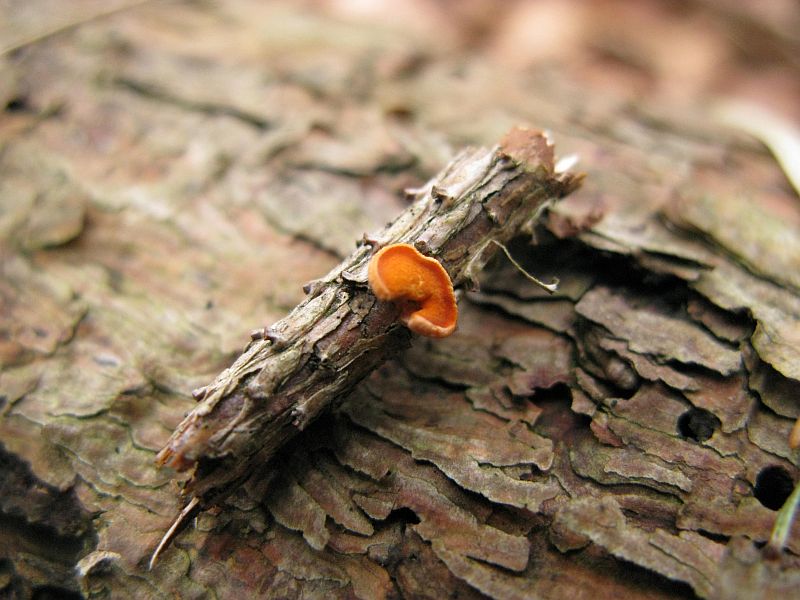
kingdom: Fungi
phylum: Ascomycota
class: Pezizomycetes
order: Pezizales
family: Sarcoscyphaceae
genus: Pithya
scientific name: Pithya vulgaris
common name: stor dukatbæger
